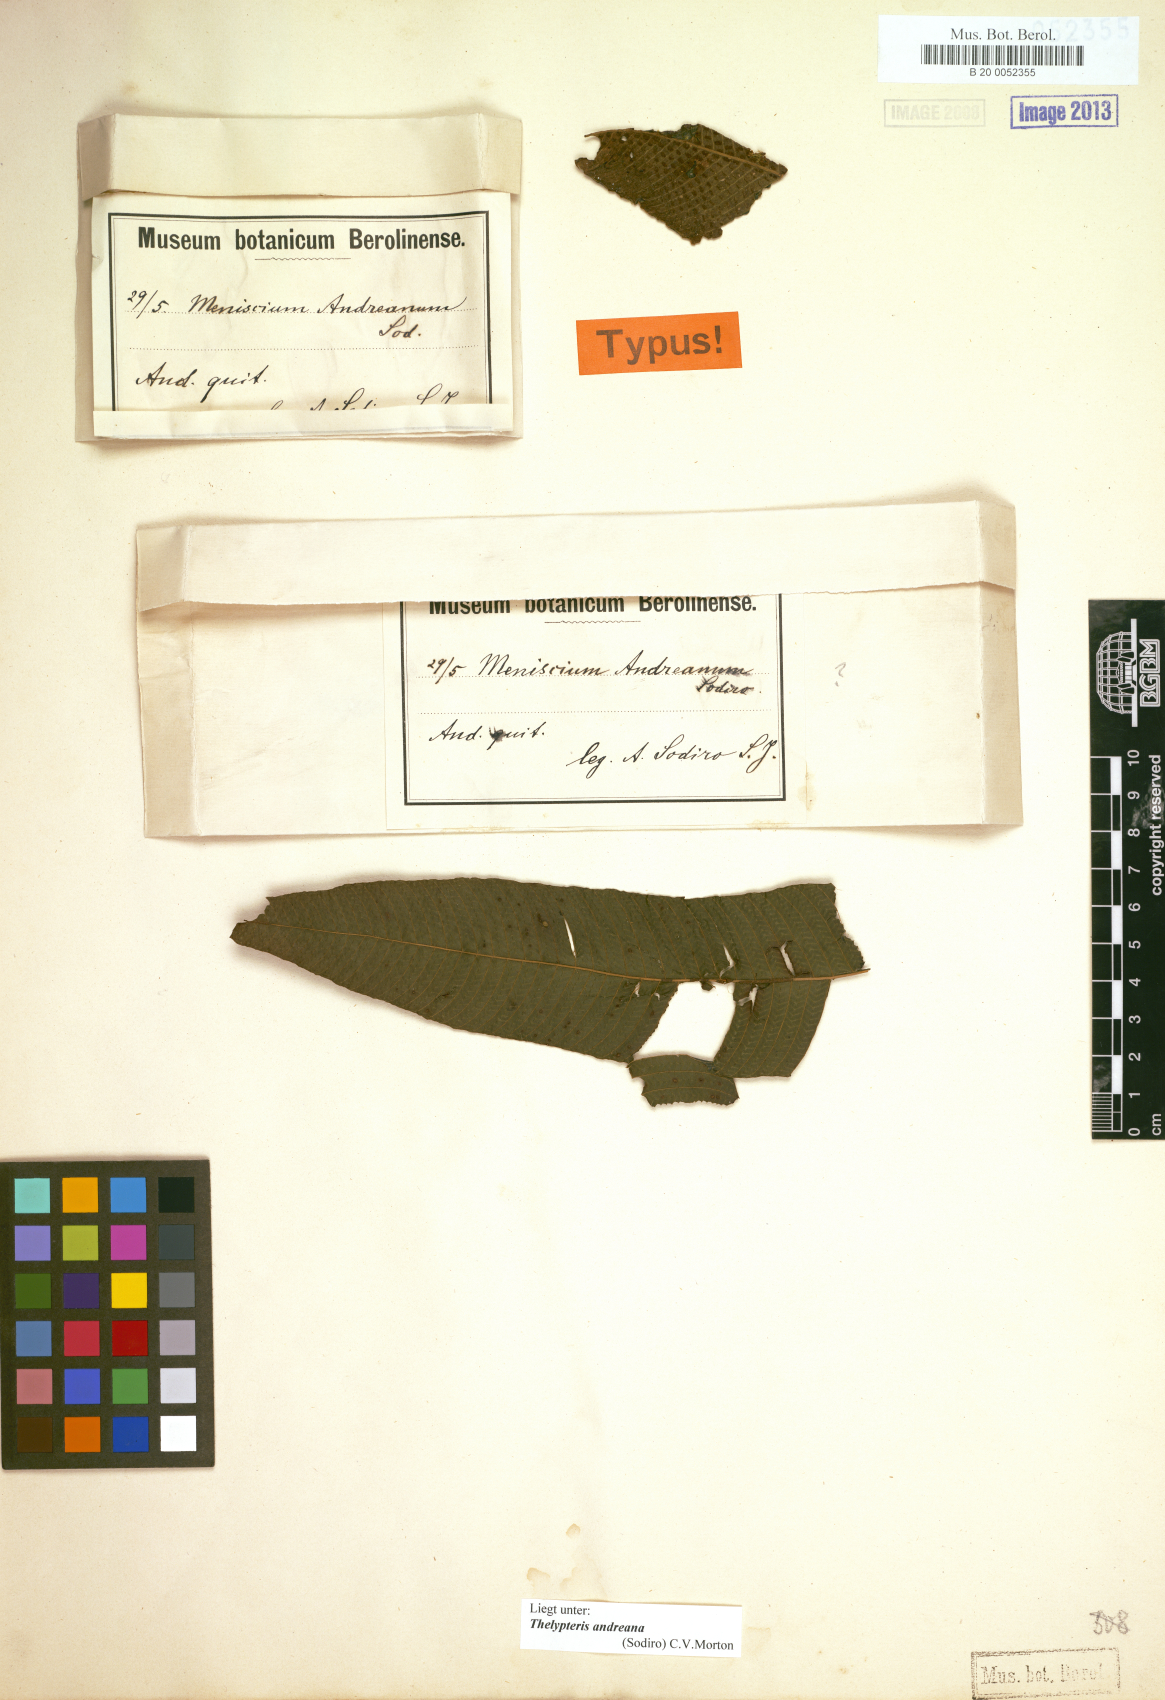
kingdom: Plantae
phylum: Tracheophyta
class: Polypodiopsida
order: Polypodiales
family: Thelypteridaceae
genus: Meniscium
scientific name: Meniscium andreanum
